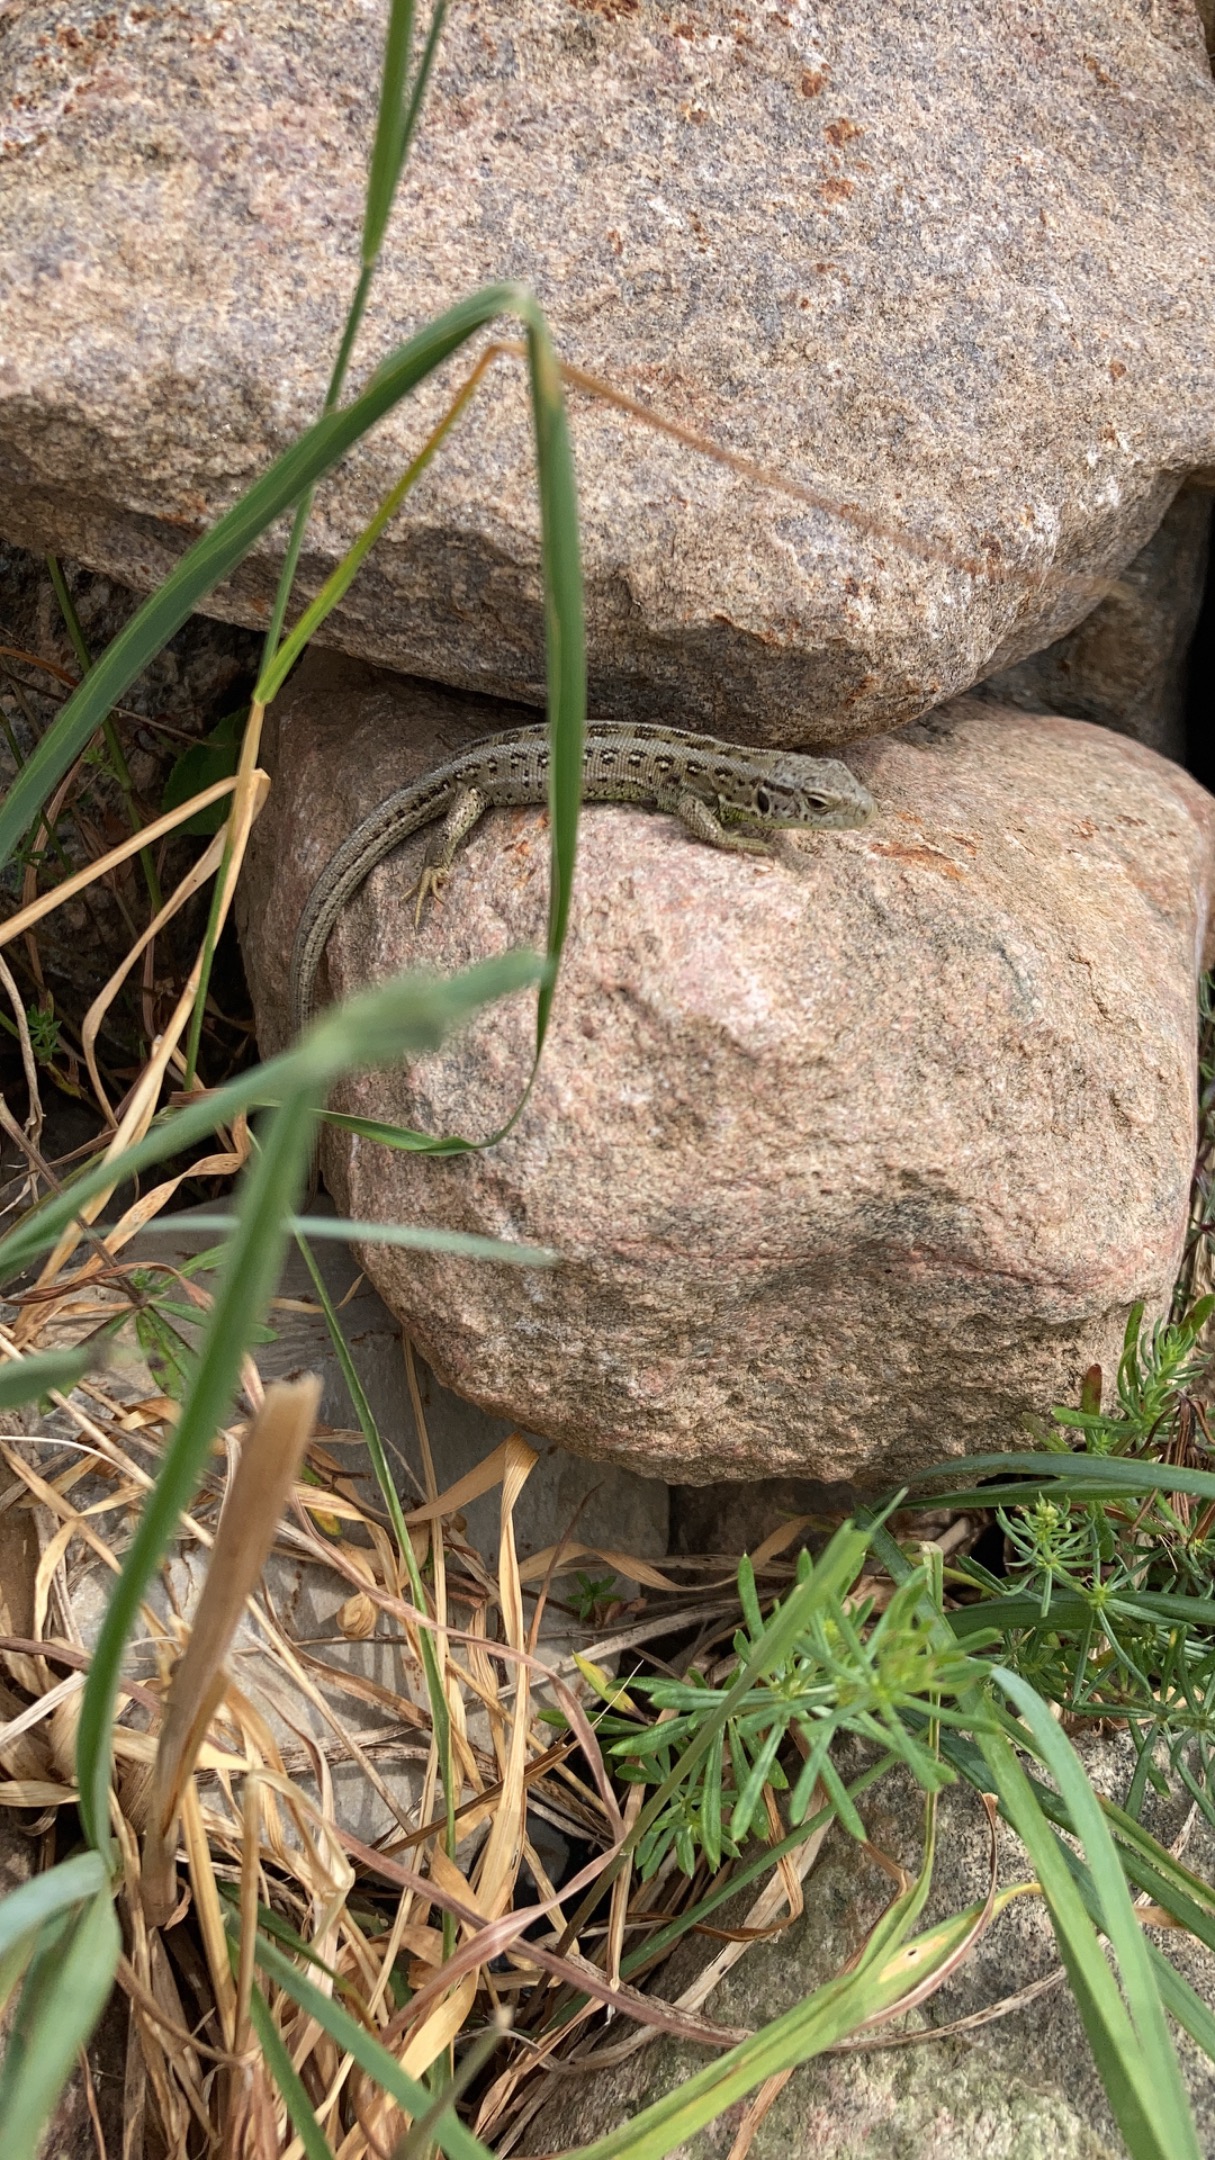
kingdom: Animalia
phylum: Chordata
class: Squamata
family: Lacertidae
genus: Lacerta
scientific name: Lacerta agilis
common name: Markfirben
